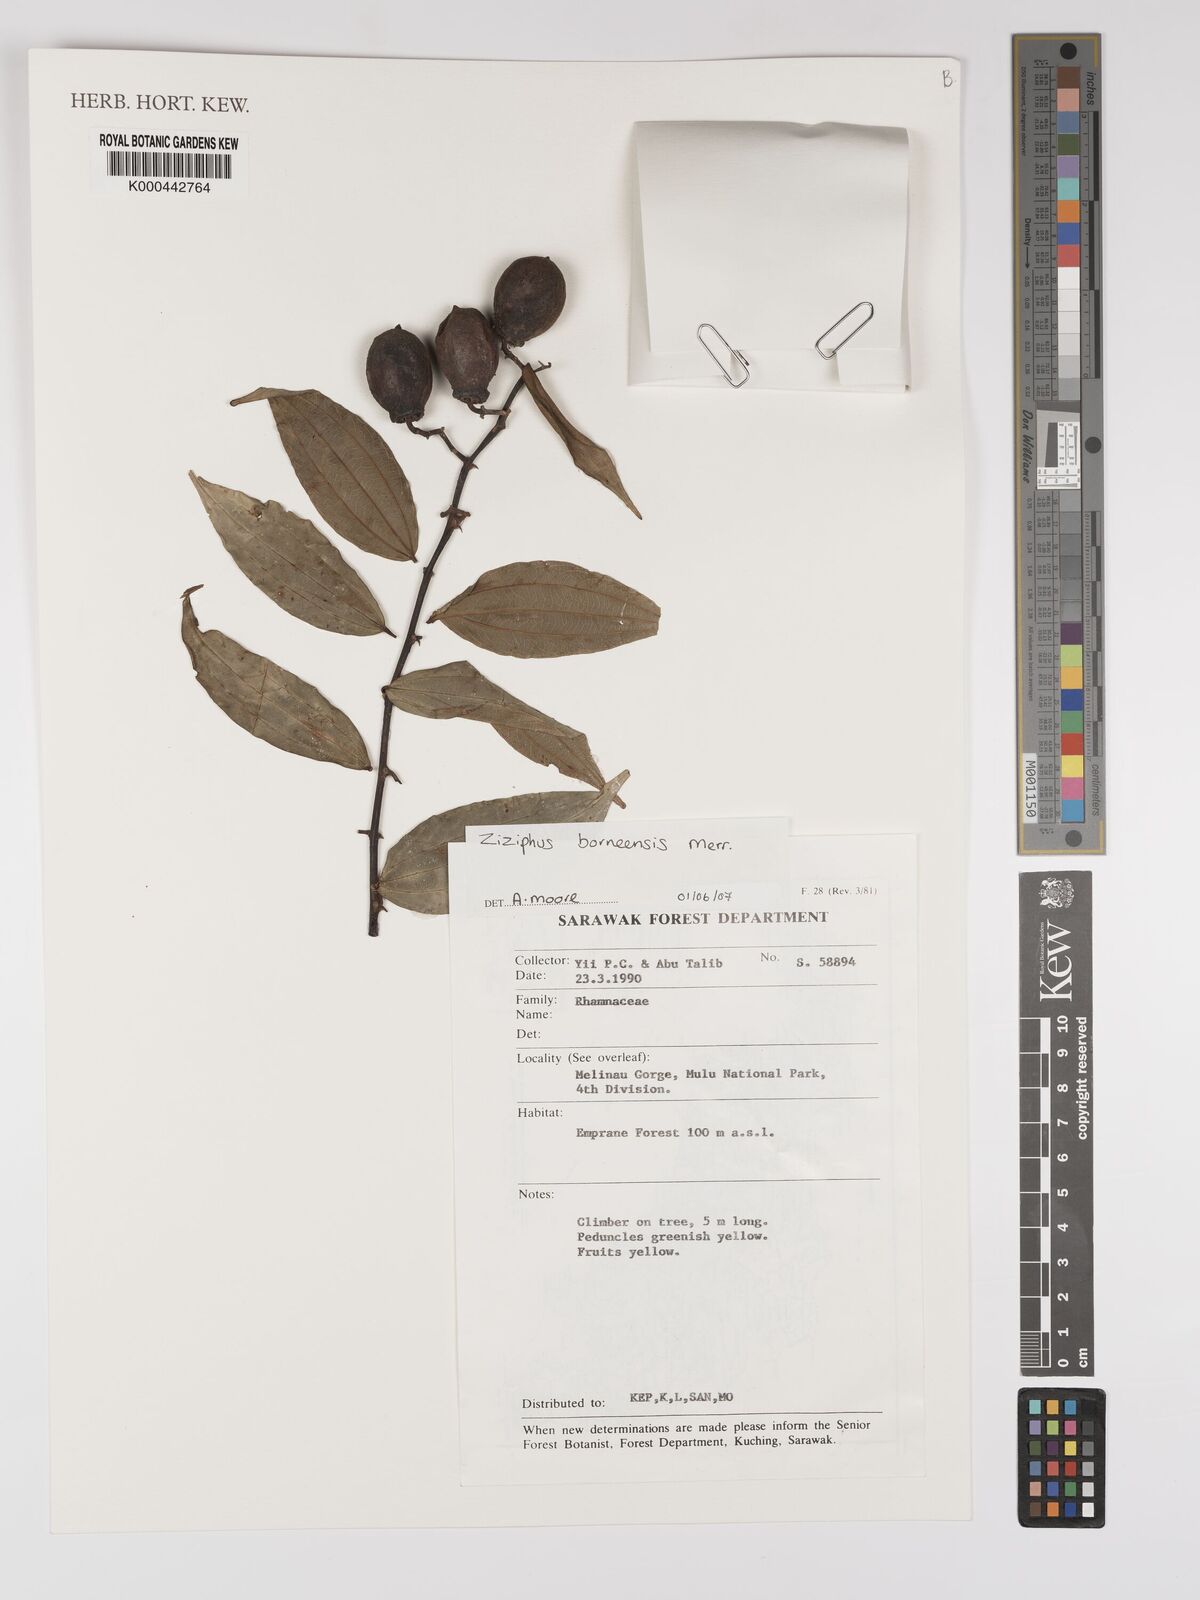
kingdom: Plantae
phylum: Tracheophyta
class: Magnoliopsida
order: Rosales
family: Rhamnaceae
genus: Ziziphus
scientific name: Ziziphus borneensis
